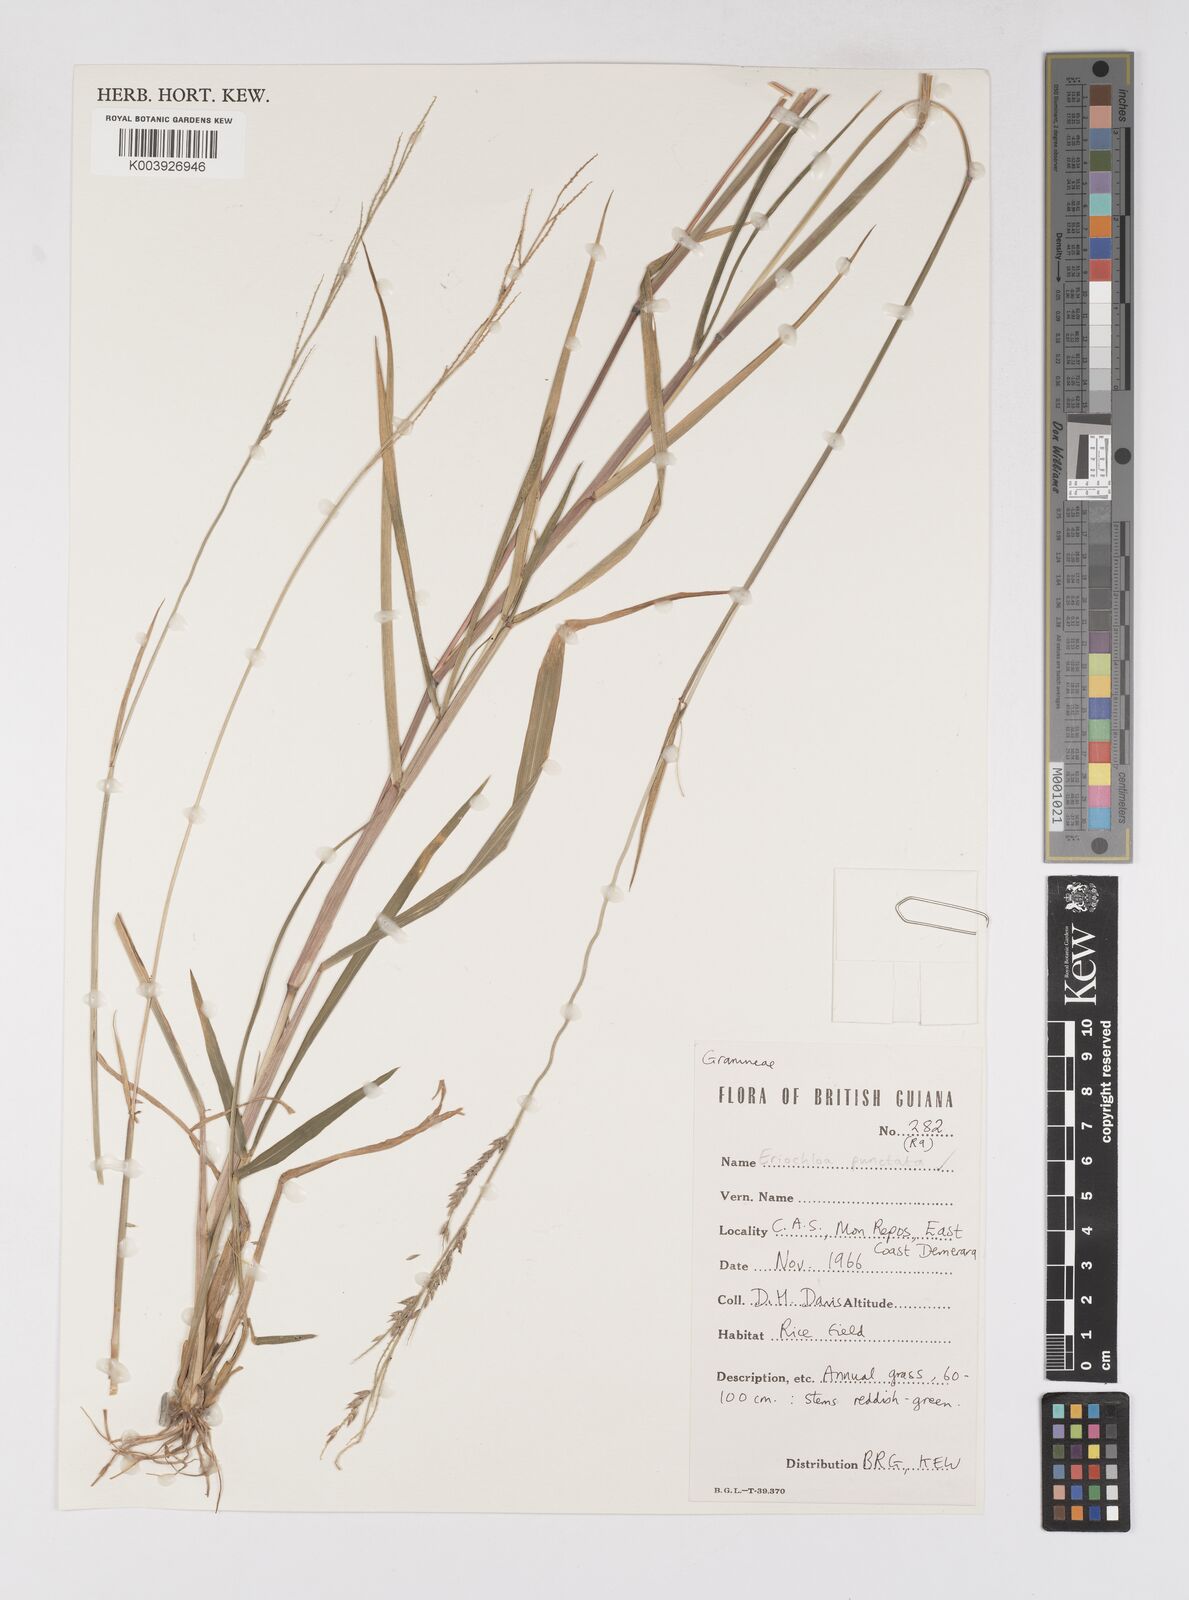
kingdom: Plantae
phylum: Tracheophyta
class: Liliopsida
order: Poales
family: Poaceae
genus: Eriochloa
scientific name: Eriochloa punctata
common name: Louisiana cupgrass
